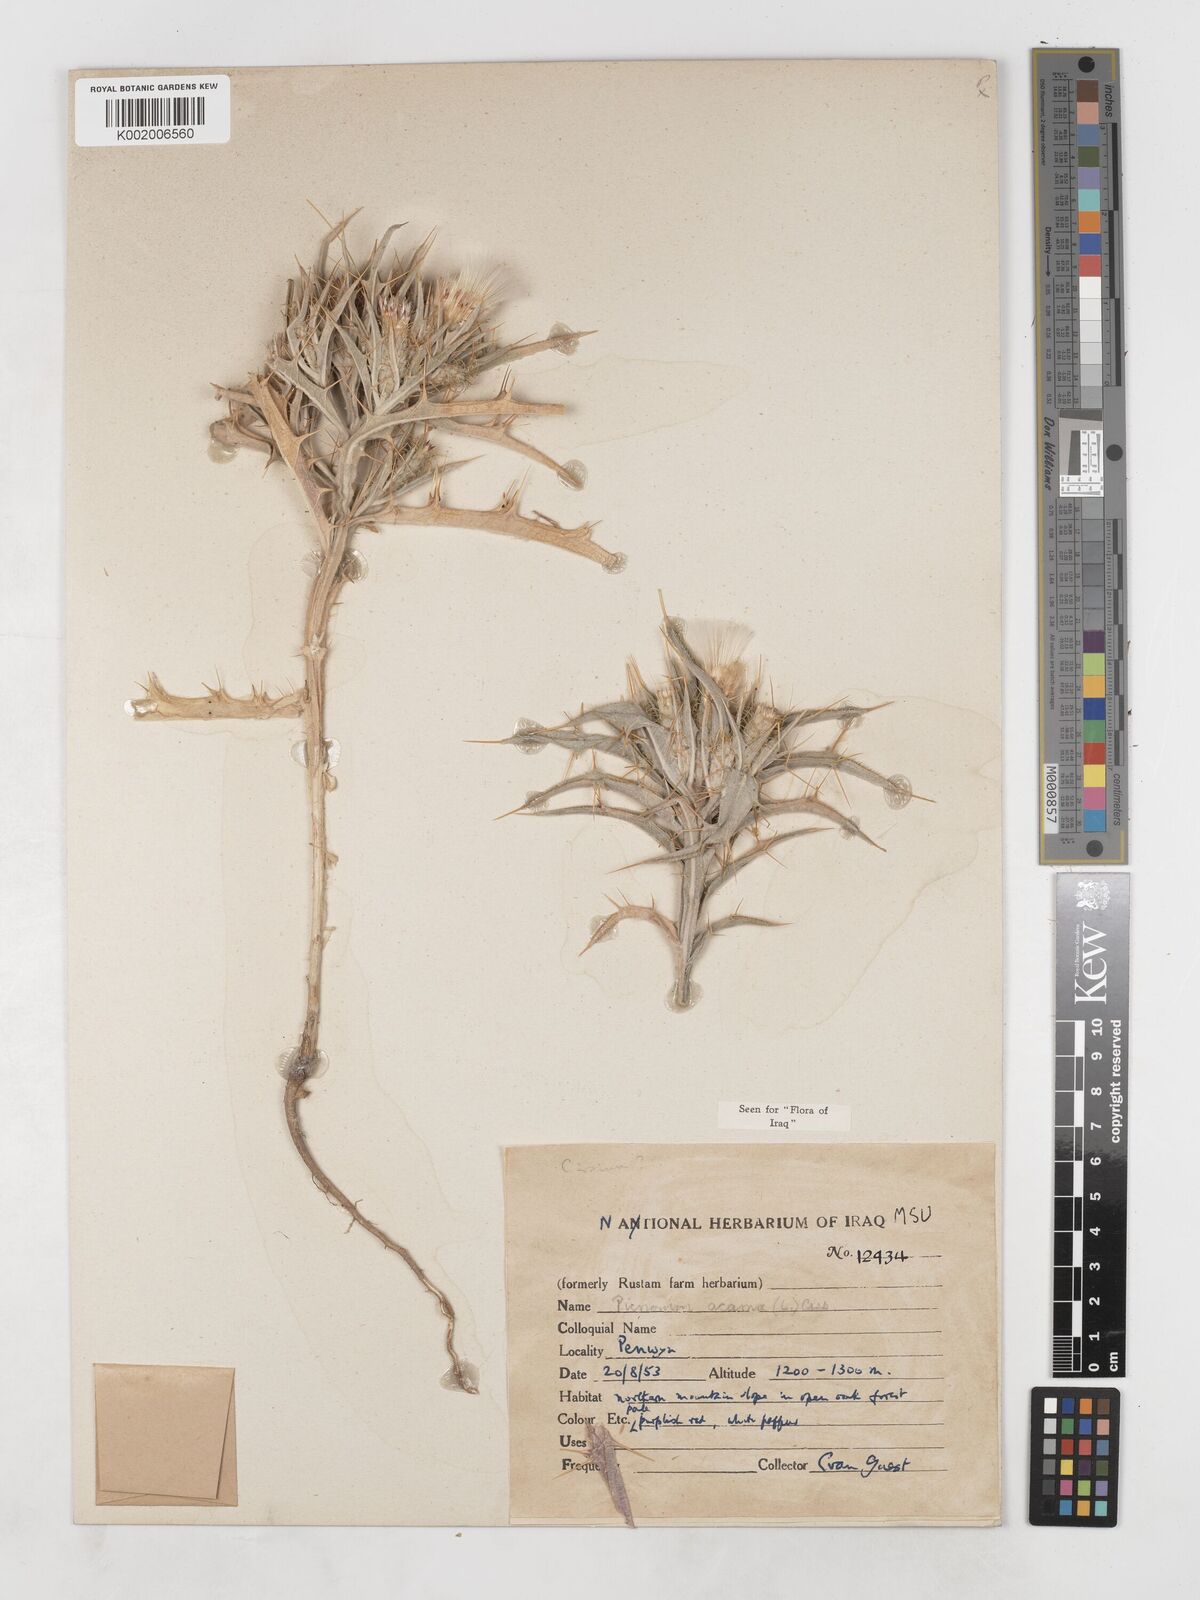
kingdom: Plantae
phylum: Tracheophyta
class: Magnoliopsida
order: Asterales
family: Asteraceae
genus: Picnomon
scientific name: Picnomon acarna
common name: Soldier thistle
